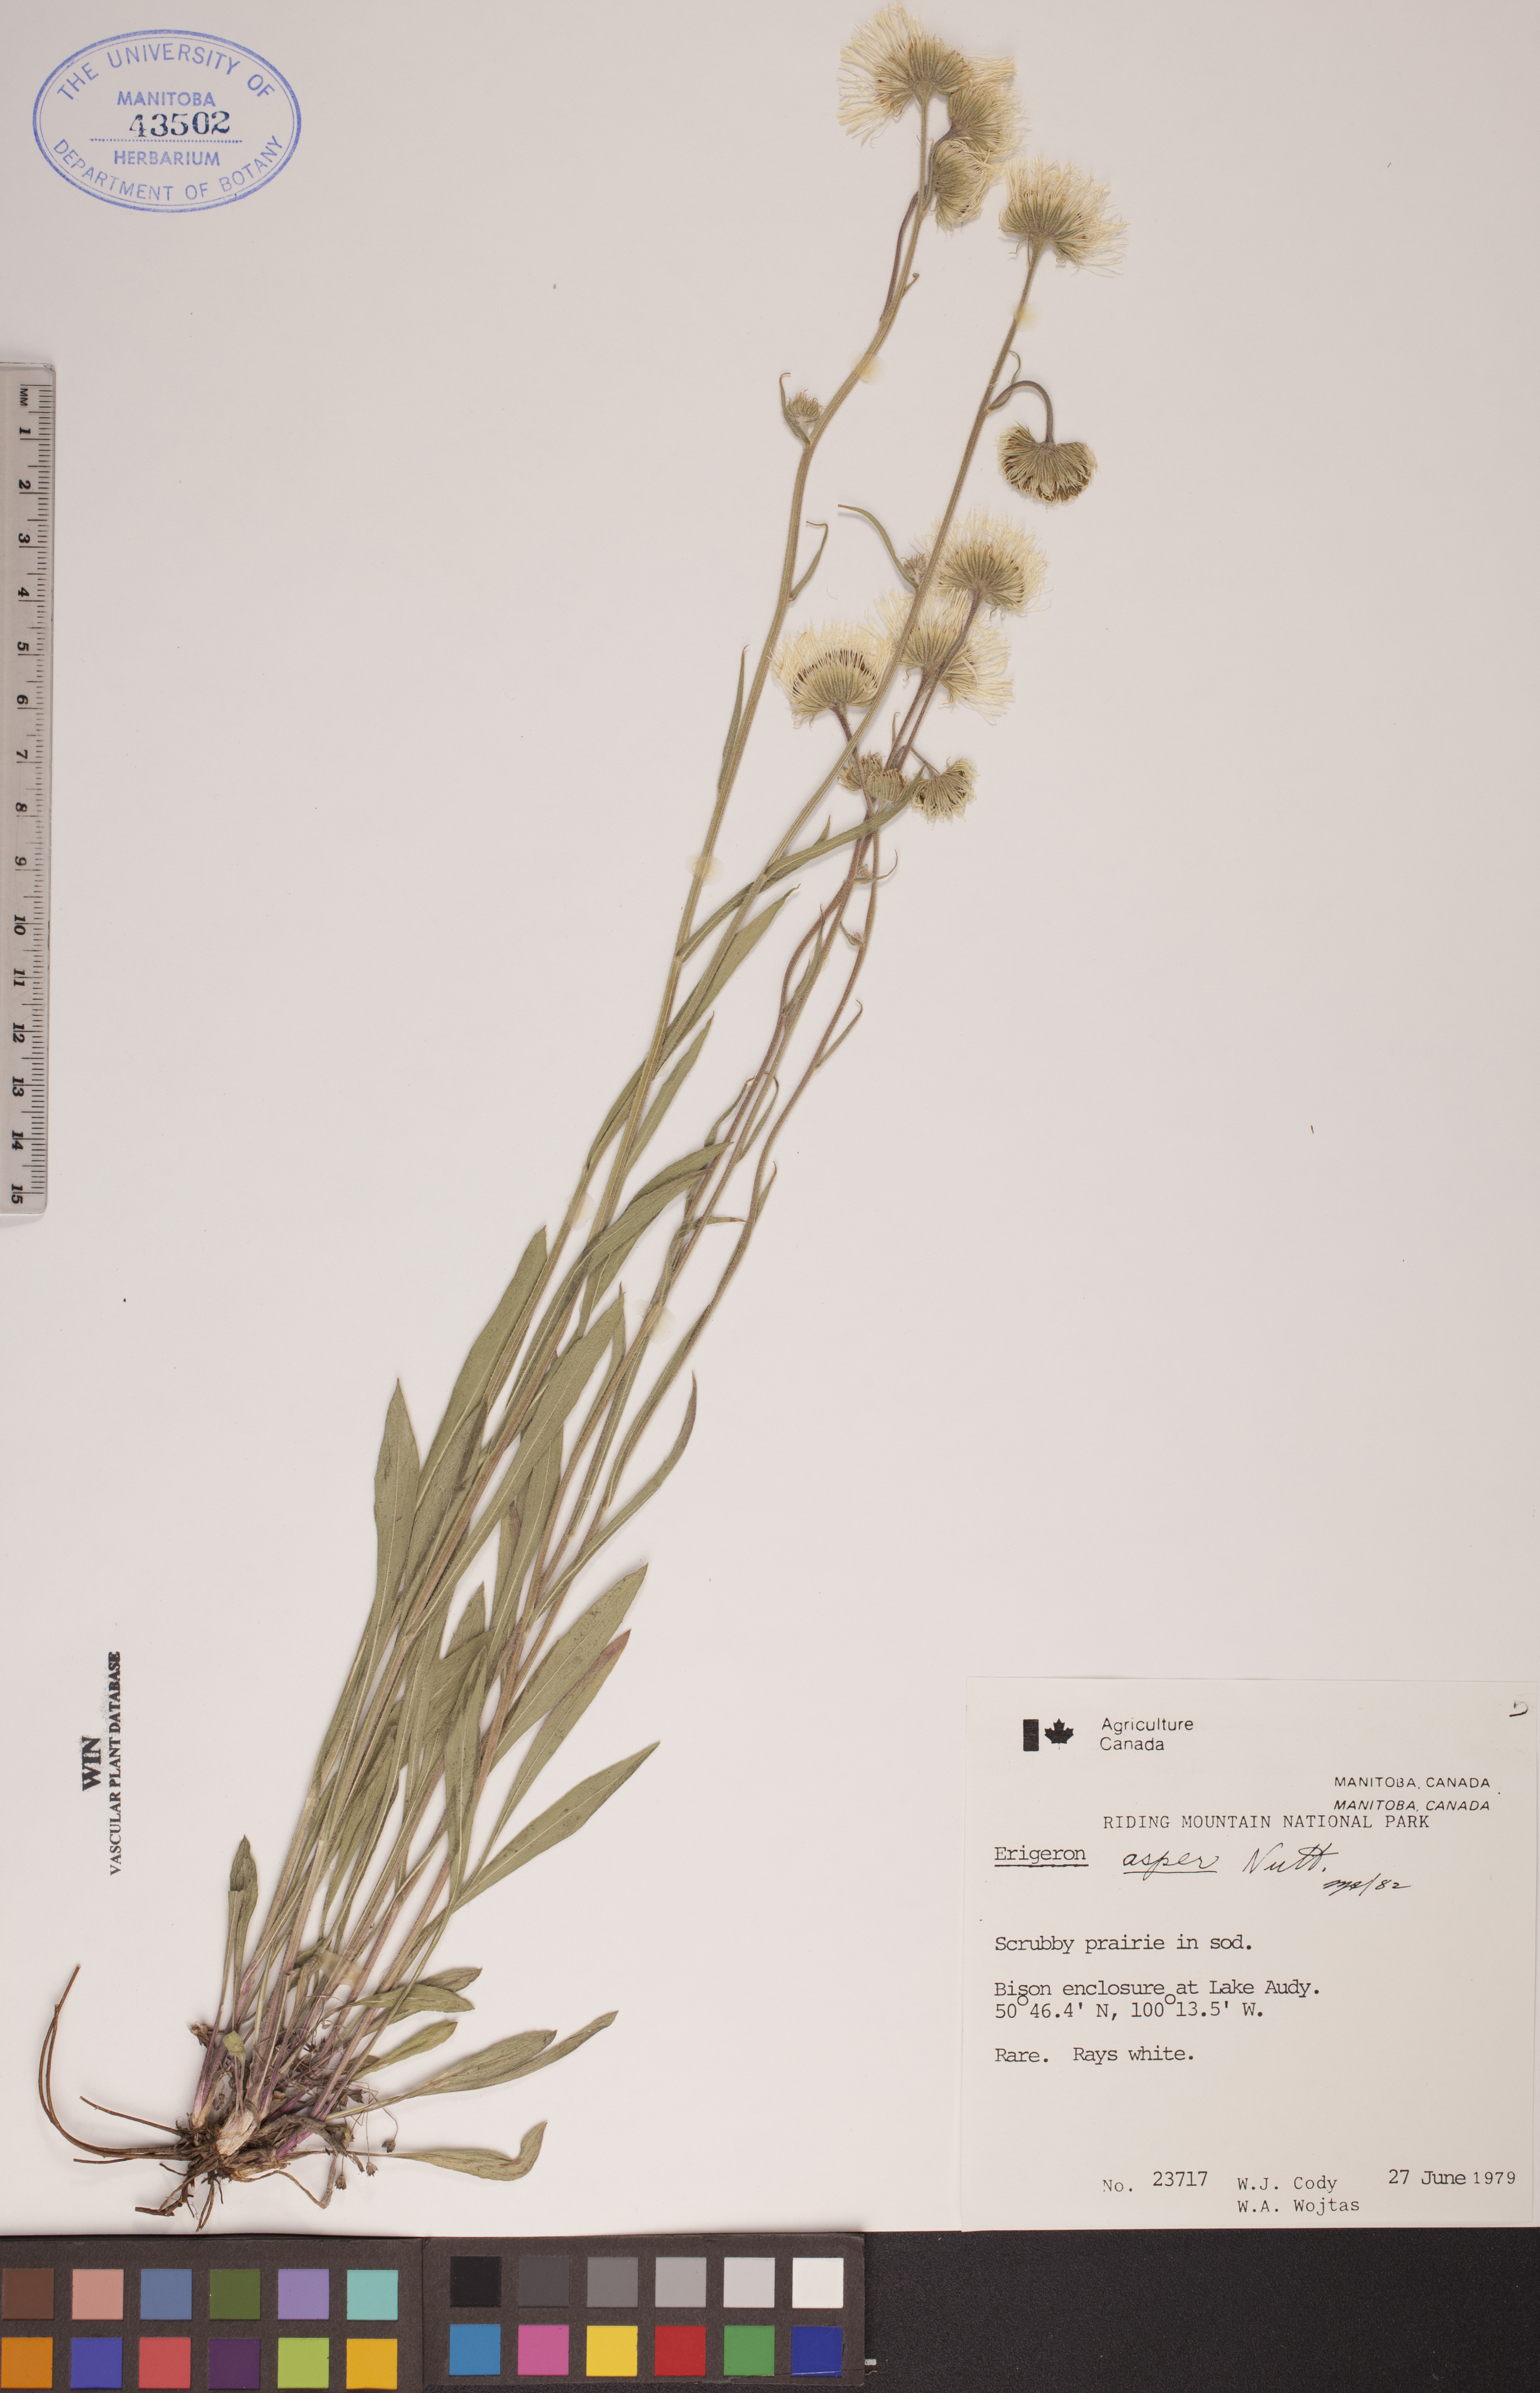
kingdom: Plantae
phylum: Tracheophyta
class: Magnoliopsida
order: Asterales
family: Asteraceae
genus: Erigeron
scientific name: Erigeron glabellus
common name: Smooth fleabane
